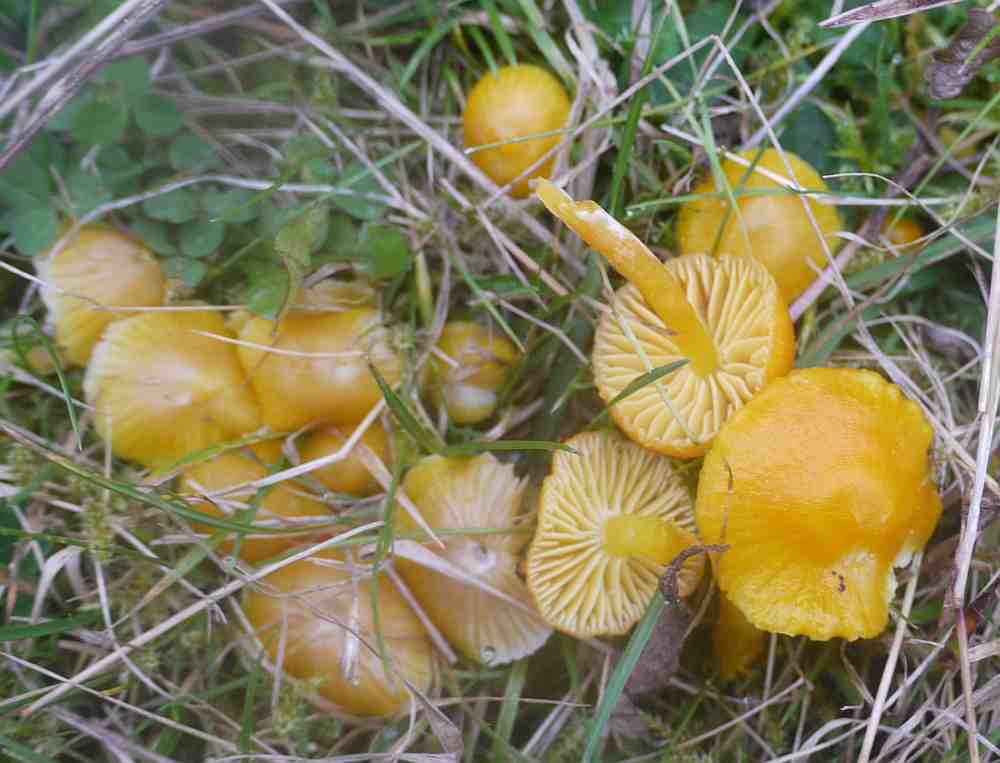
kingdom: Fungi
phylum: Basidiomycota
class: Agaricomycetes
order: Agaricales
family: Hygrophoraceae
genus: Hygrocybe
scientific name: Hygrocybe ceracea
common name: voksgul vokshat
